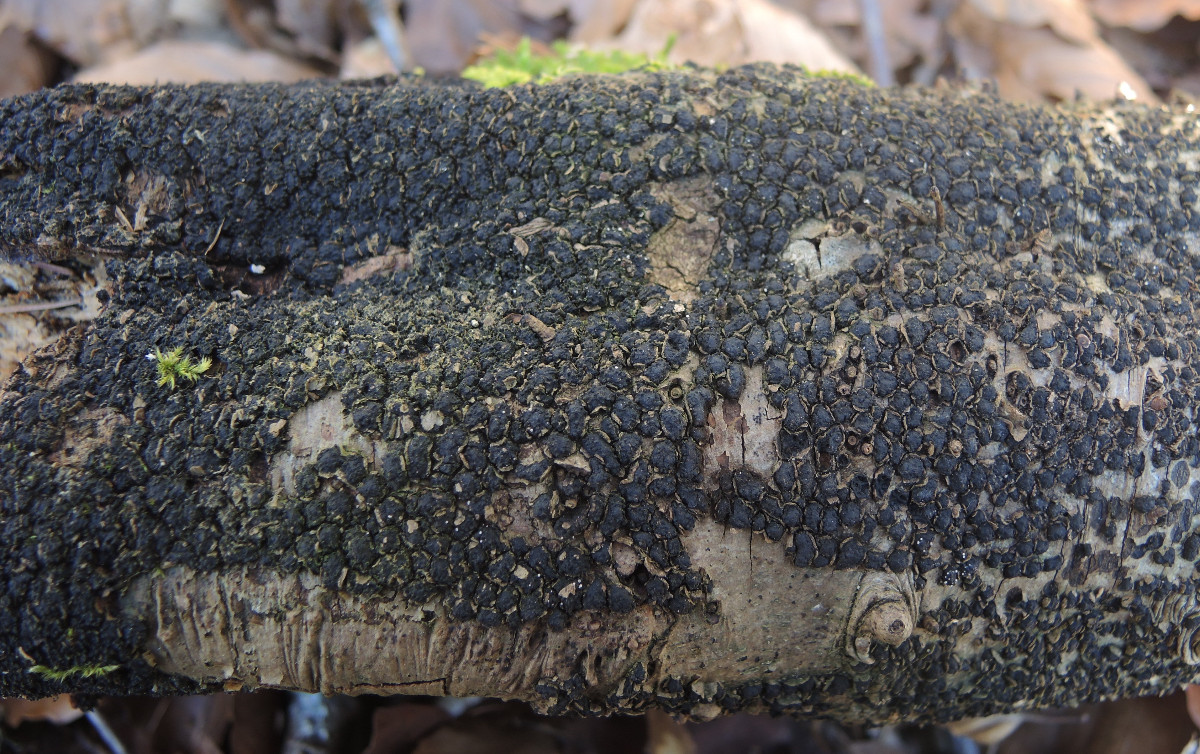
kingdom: Fungi
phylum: Ascomycota
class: Sordariomycetes
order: Xylariales
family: Melogrammataceae
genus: Melogramma
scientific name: Melogramma spiniferum
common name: bøgefod-kulhals
